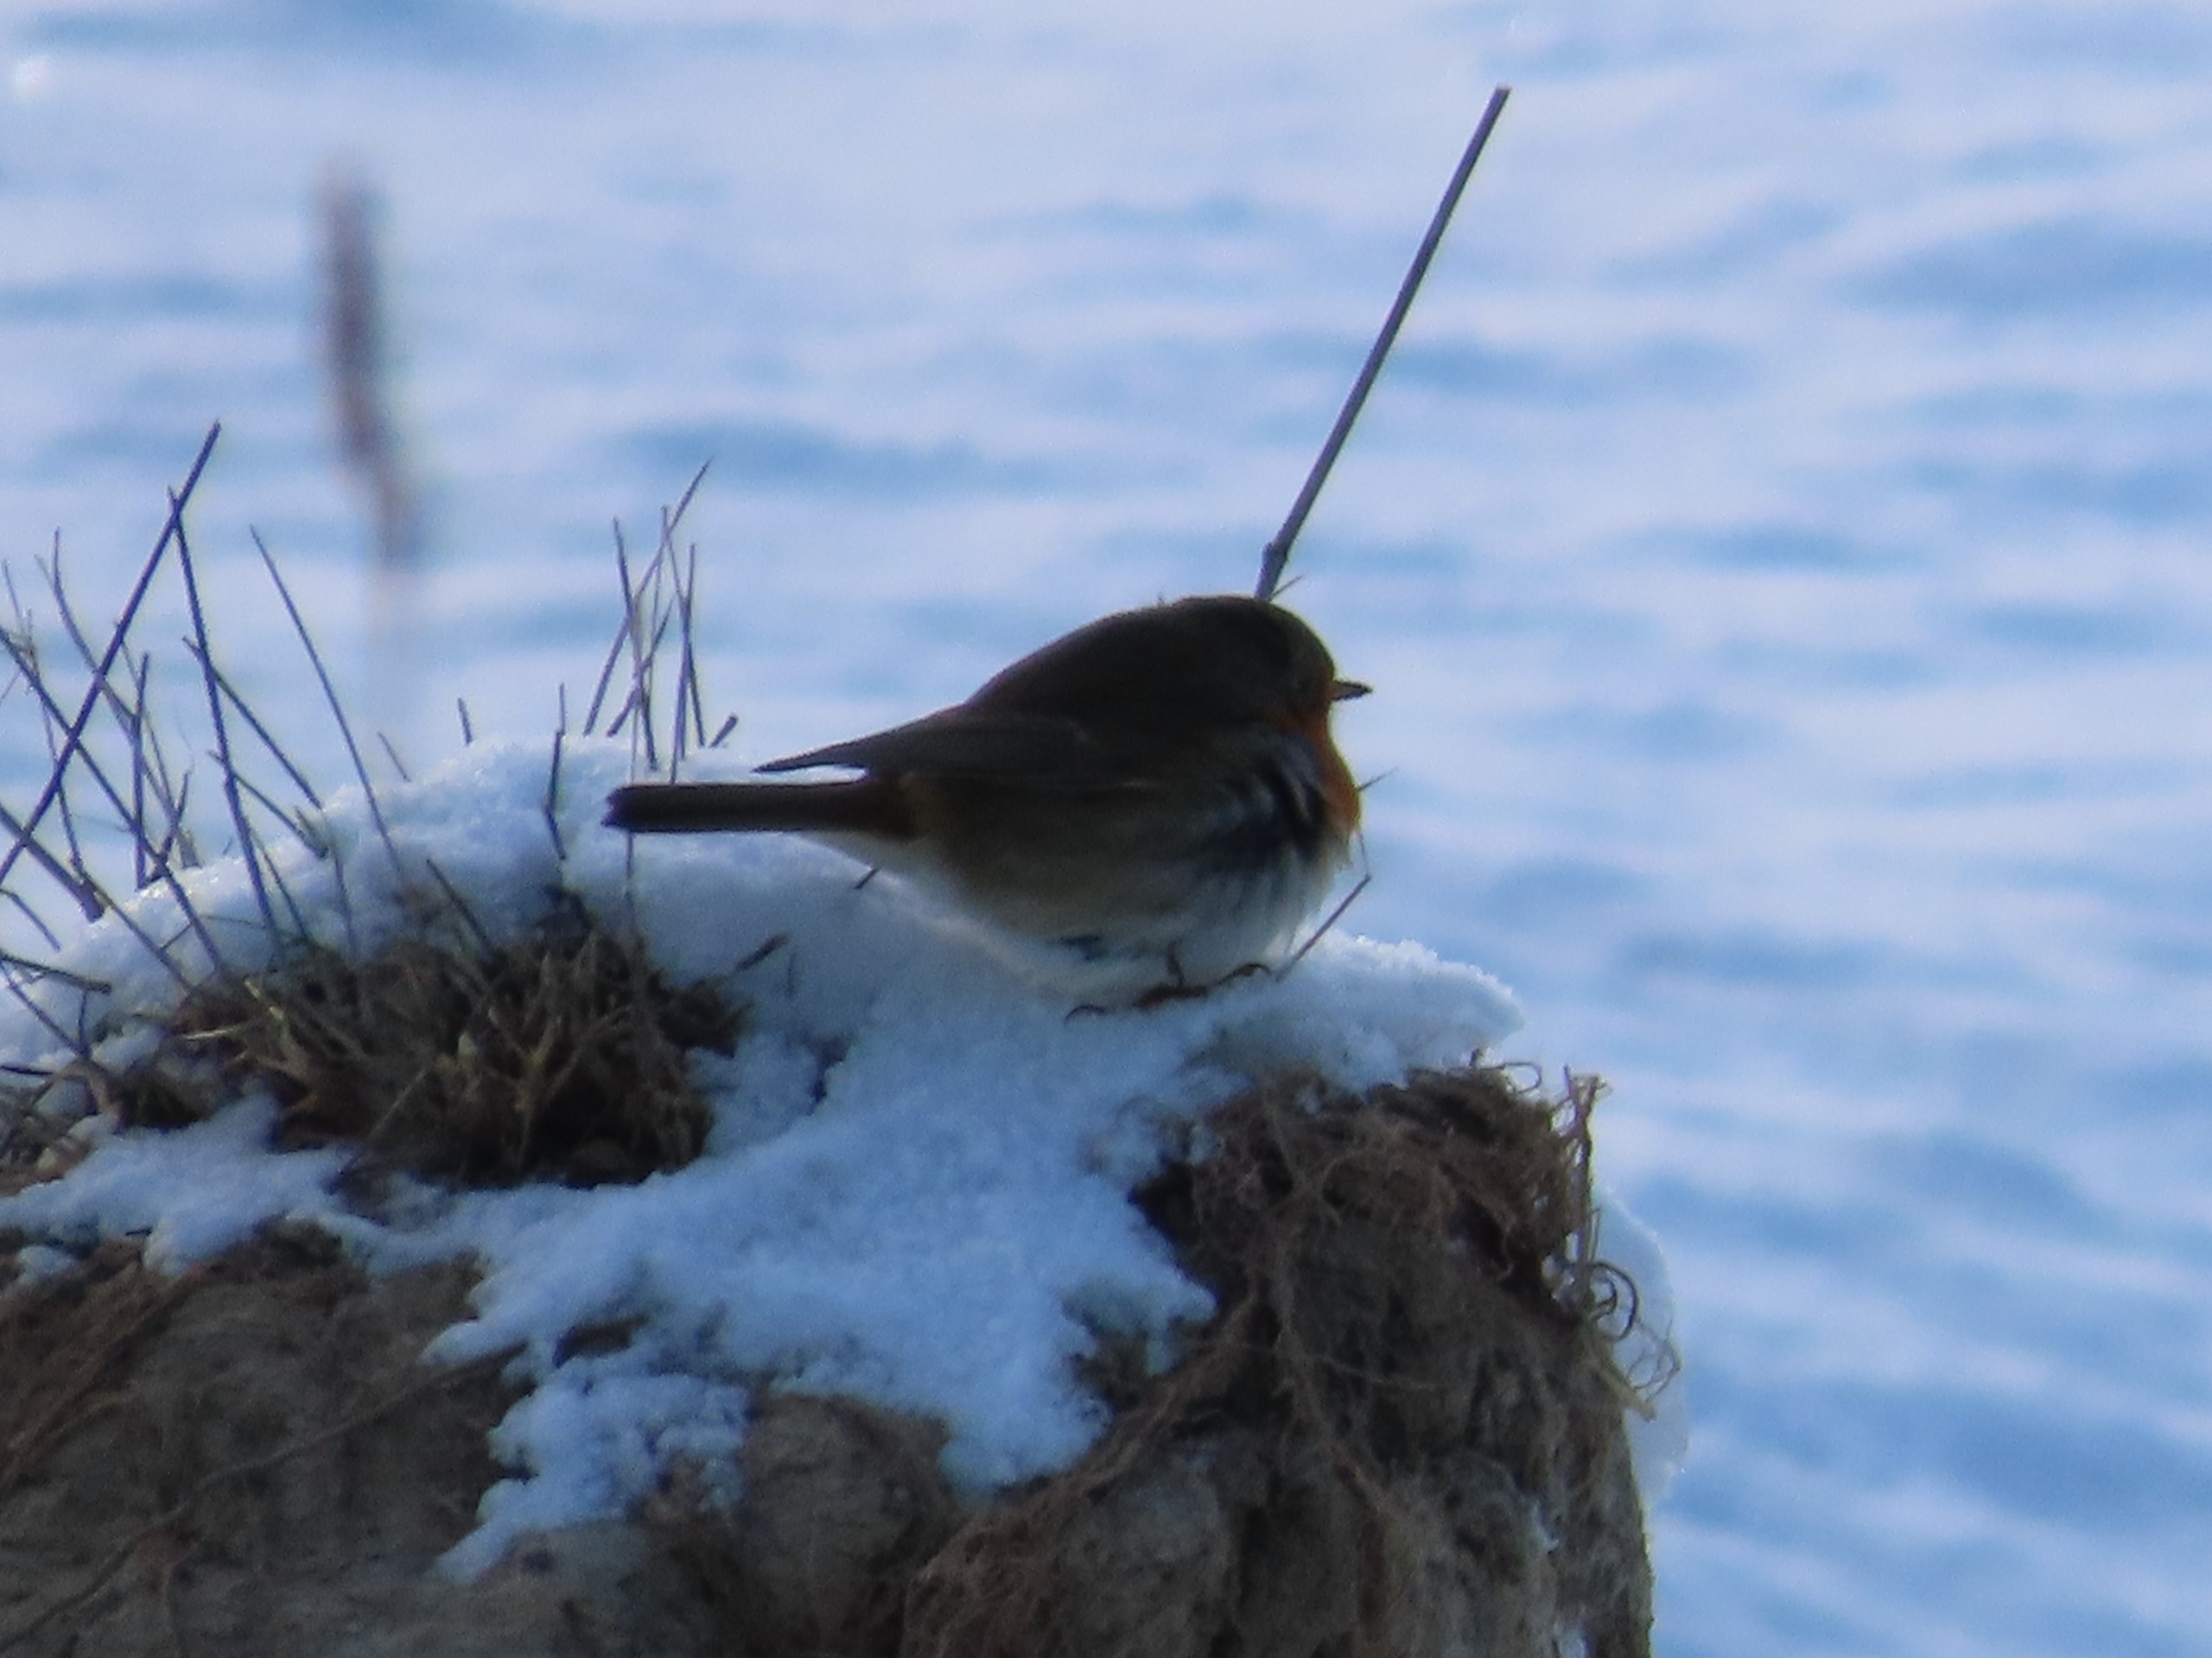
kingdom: Animalia
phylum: Chordata
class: Aves
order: Passeriformes
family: Muscicapidae
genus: Erithacus
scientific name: Erithacus rubecula
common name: Rødhals/rødkælk
